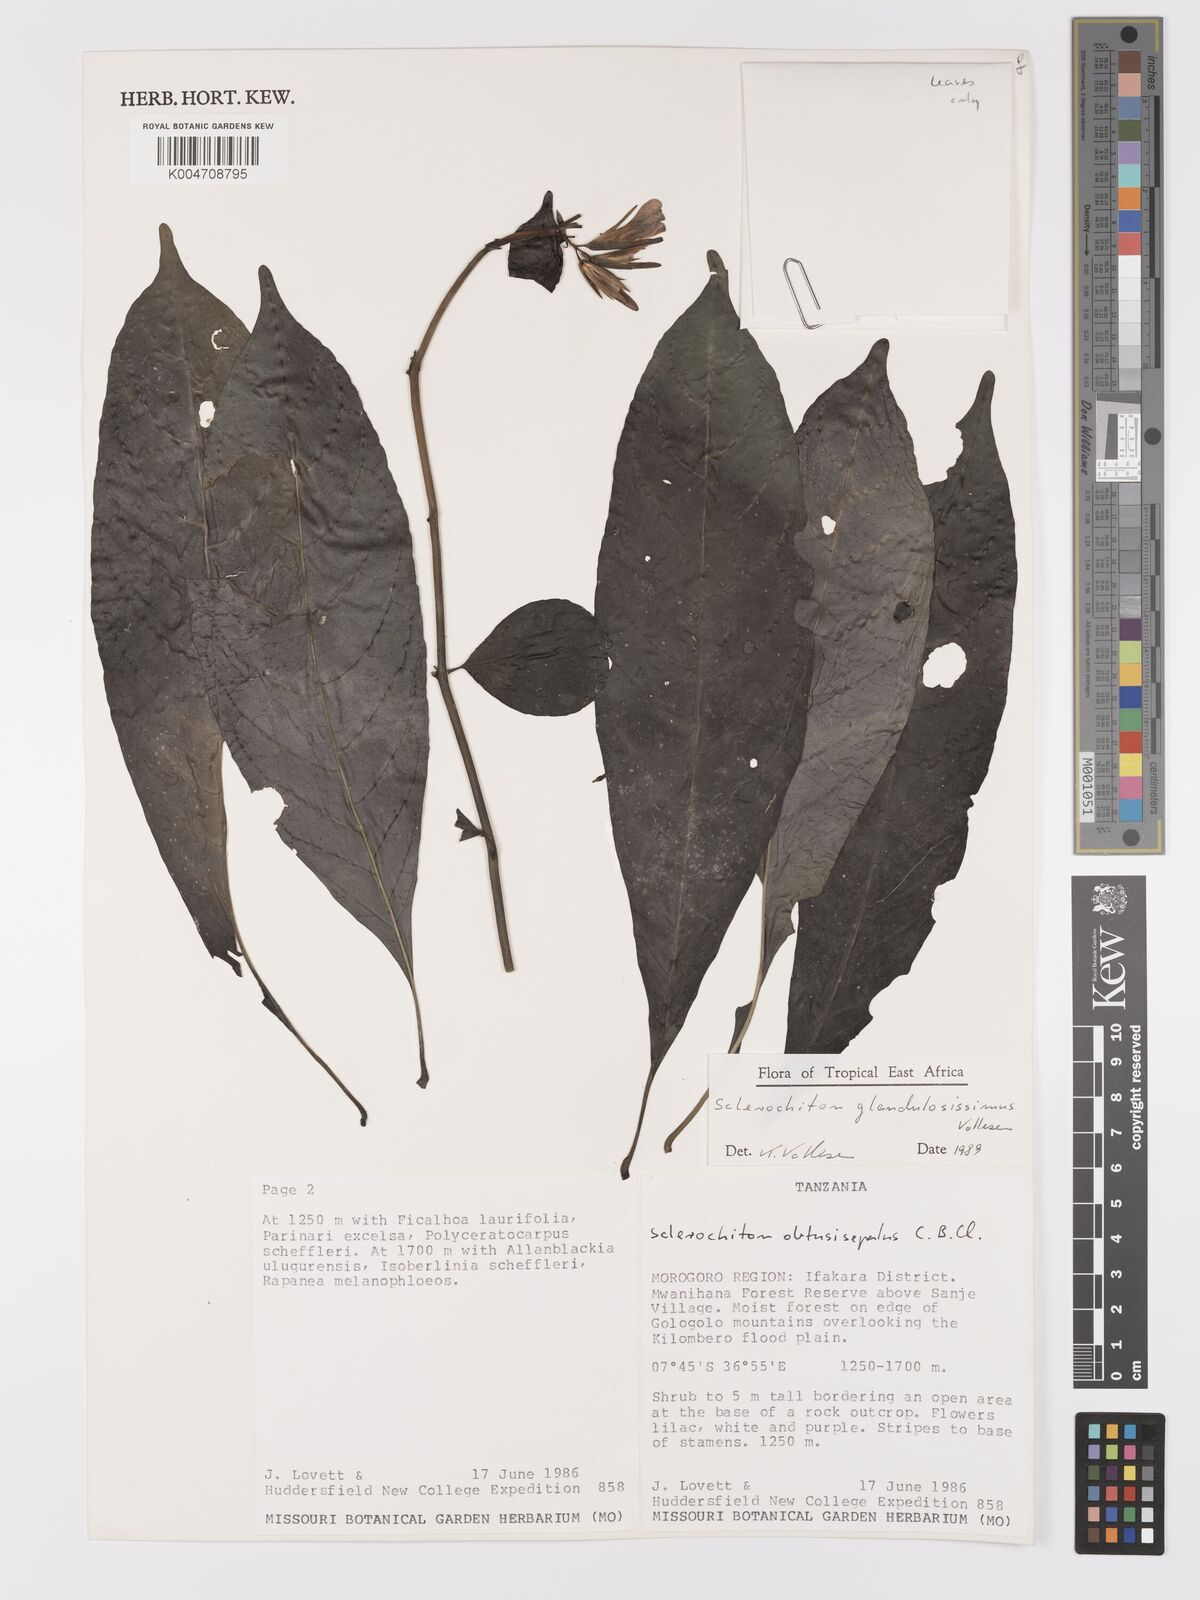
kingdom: Plantae
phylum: Tracheophyta
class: Magnoliopsida
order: Lamiales
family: Acanthaceae
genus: Sclerochiton
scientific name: Sclerochiton glandulosissimus
